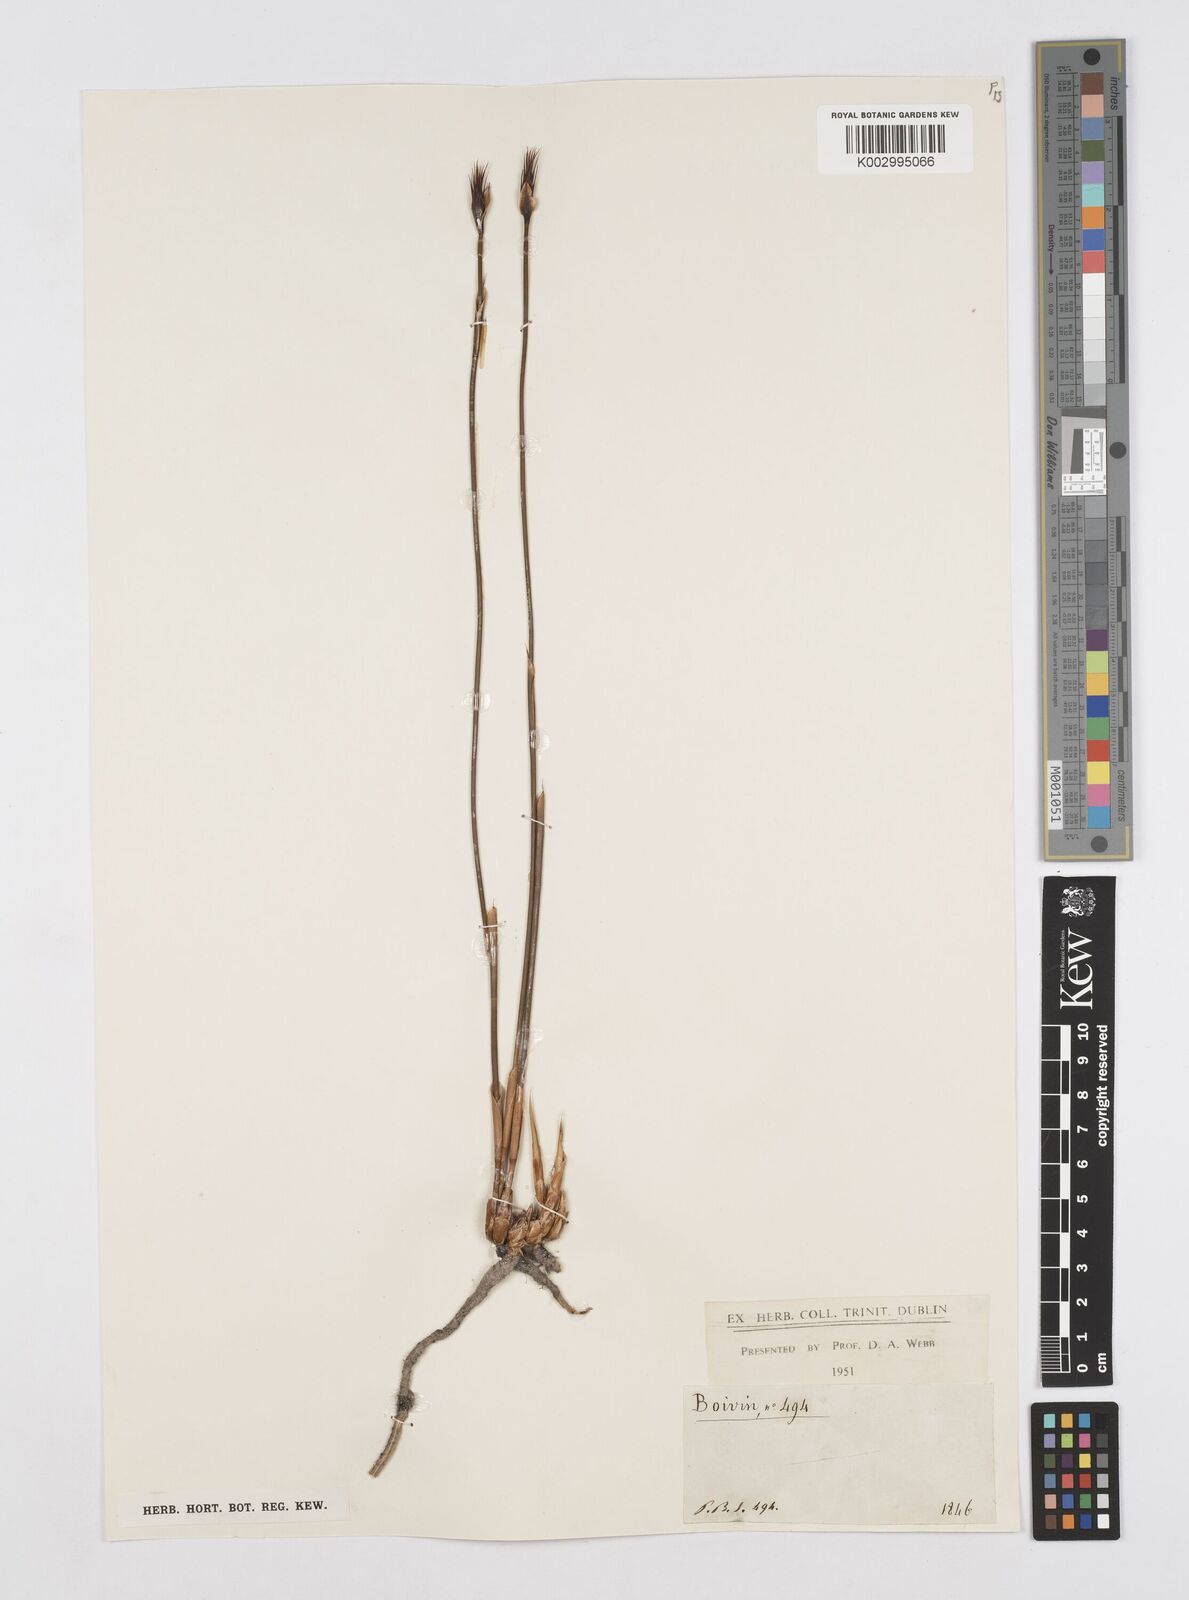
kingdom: Plantae
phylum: Tracheophyta
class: Liliopsida
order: Poales
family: Restionaceae
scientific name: Restionaceae
